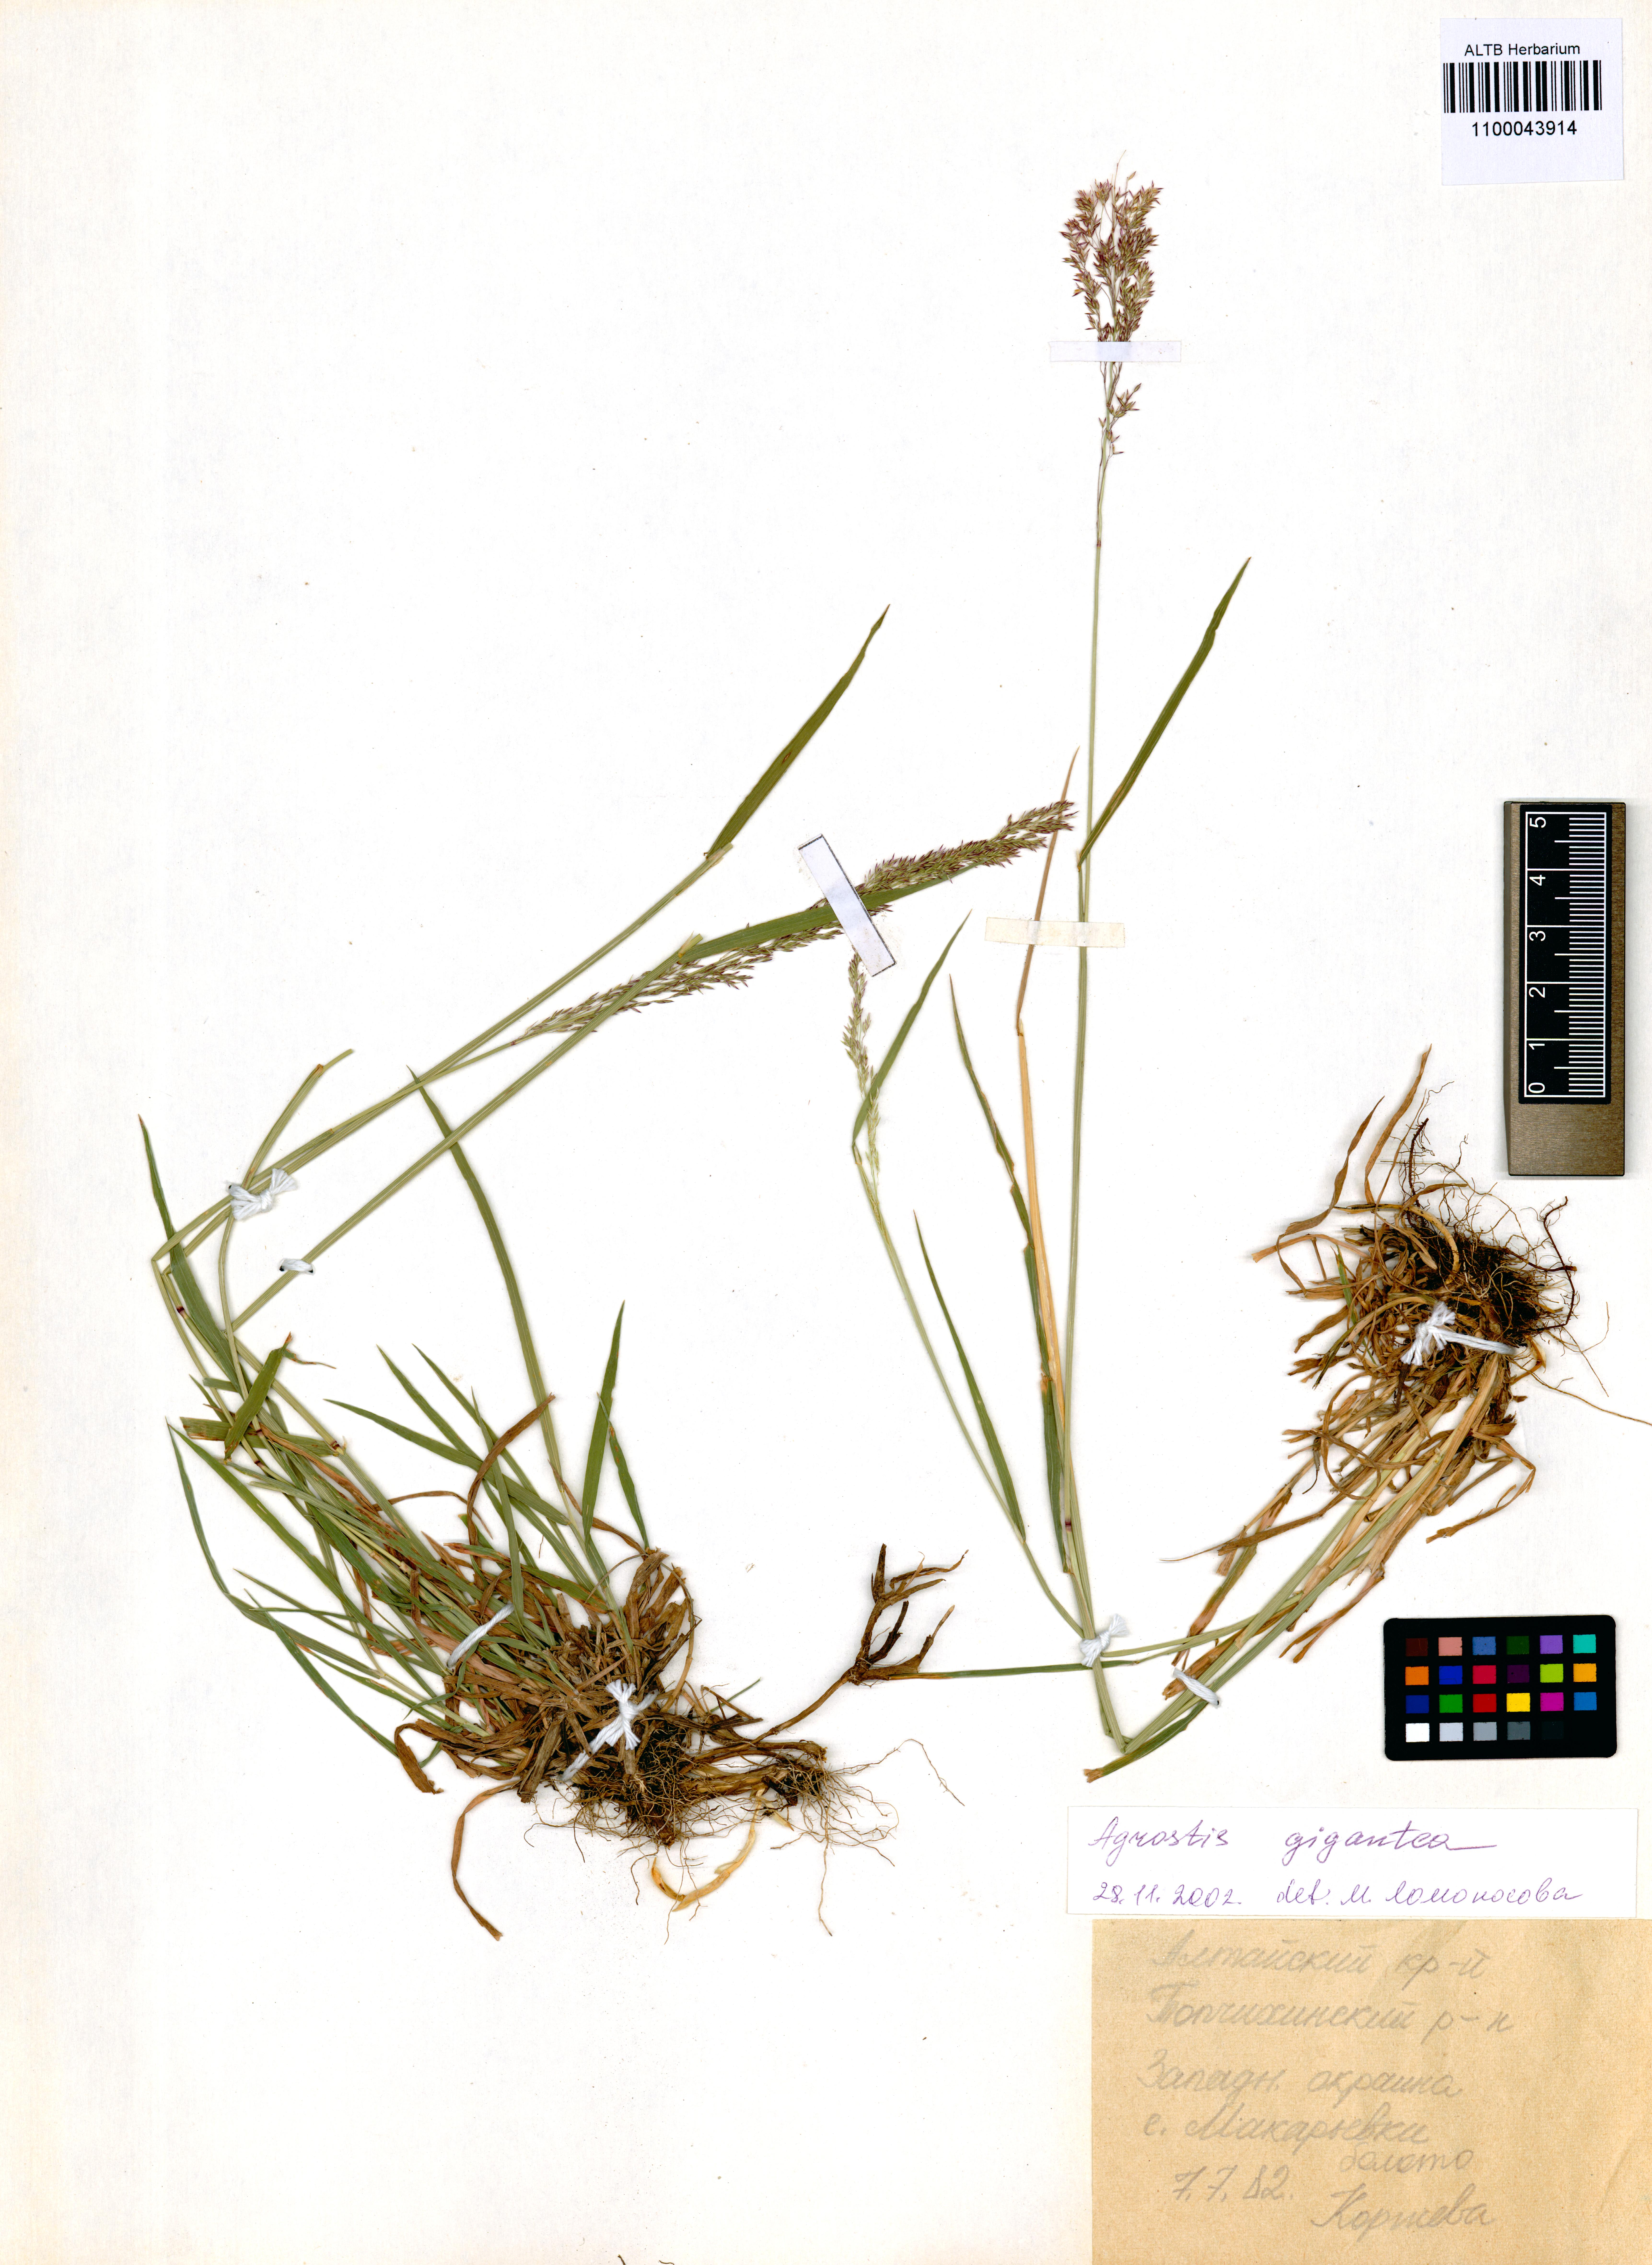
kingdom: Plantae
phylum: Tracheophyta
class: Liliopsida
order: Poales
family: Poaceae
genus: Agrostis
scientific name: Agrostis gigantea
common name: Black bent
